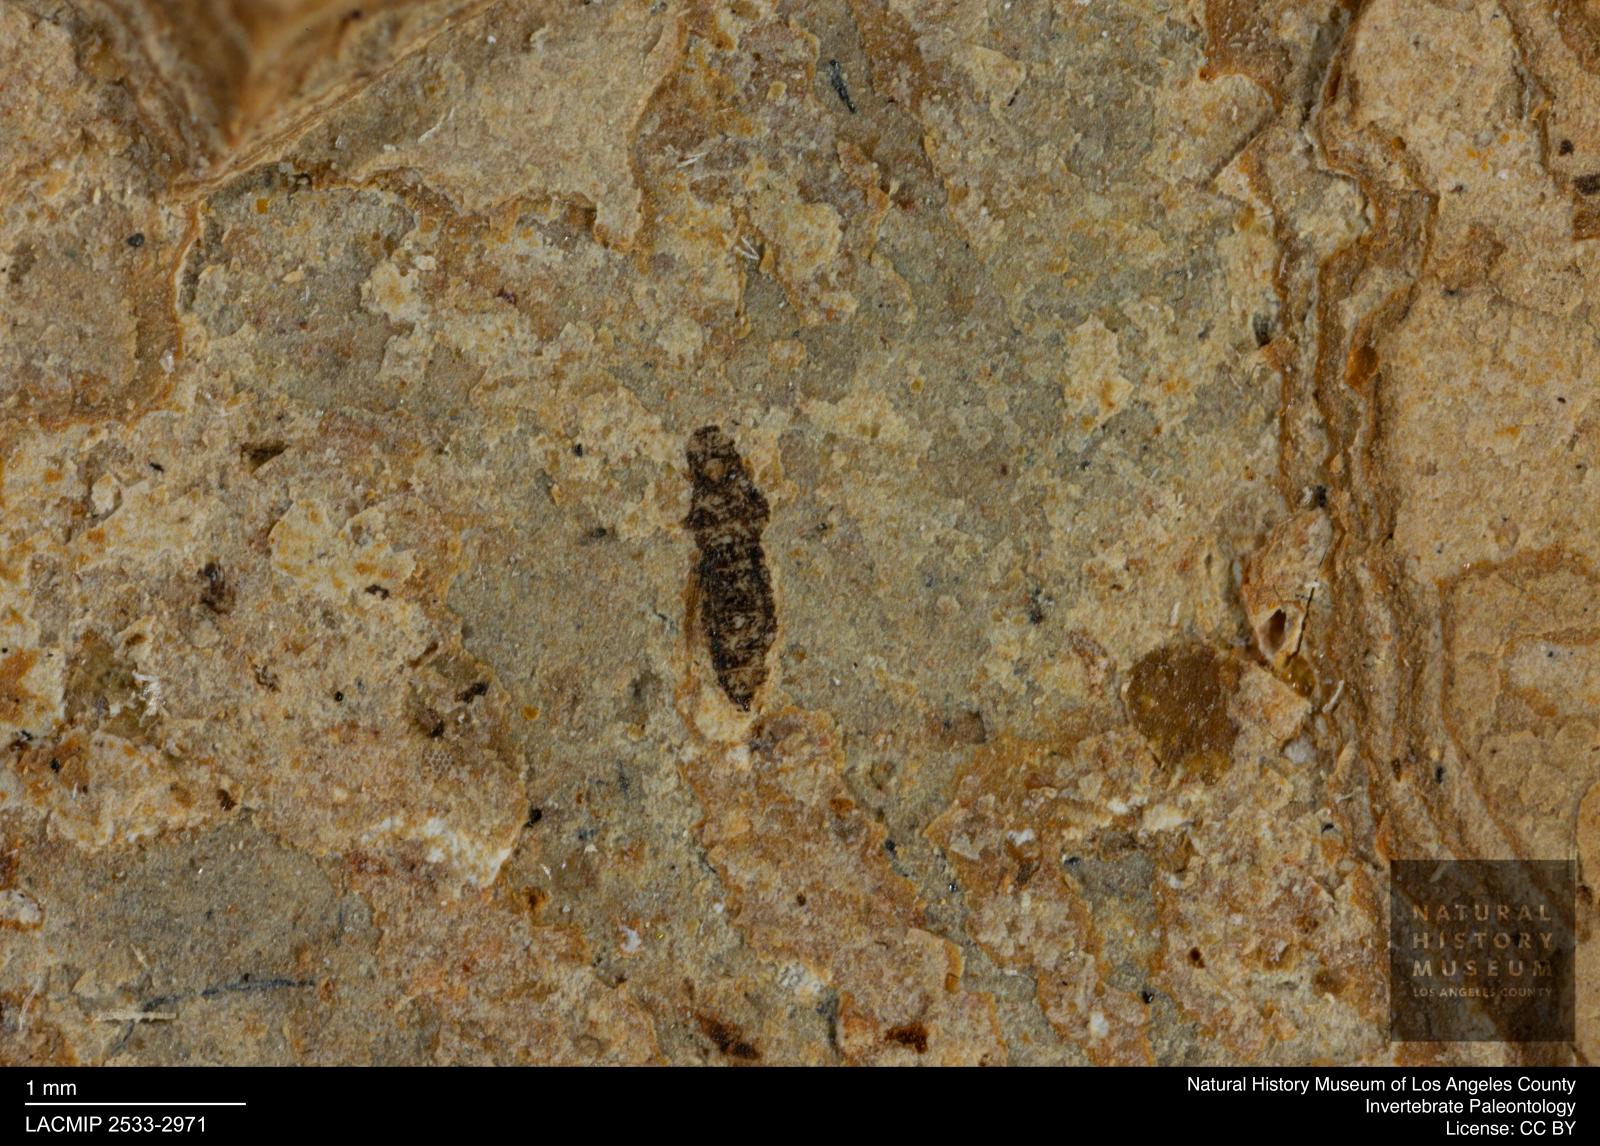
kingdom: Animalia
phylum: Arthropoda
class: Insecta
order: Thysanoptera
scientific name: Thysanoptera
